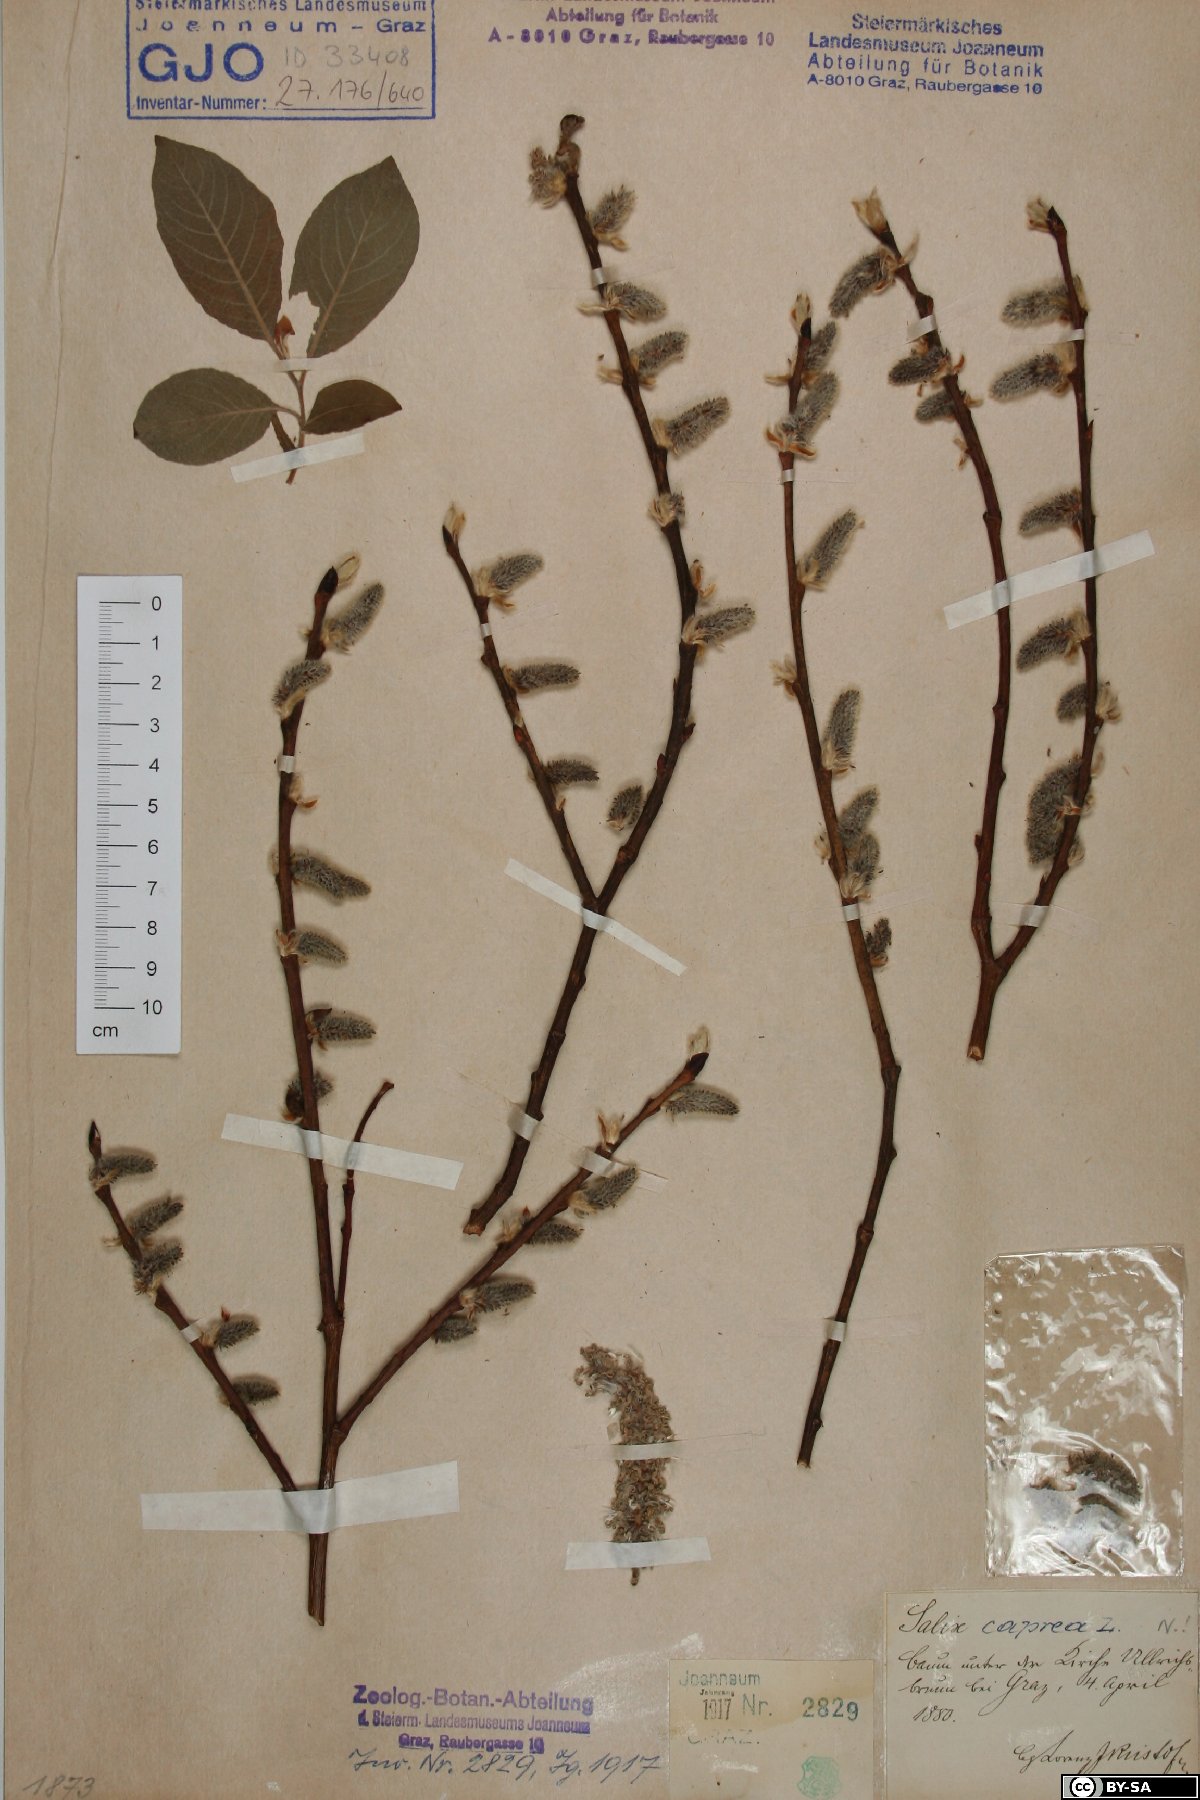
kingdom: Plantae
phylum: Tracheophyta
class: Magnoliopsida
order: Malpighiales
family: Salicaceae
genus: Salix
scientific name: Salix caprea
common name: Goat willow
